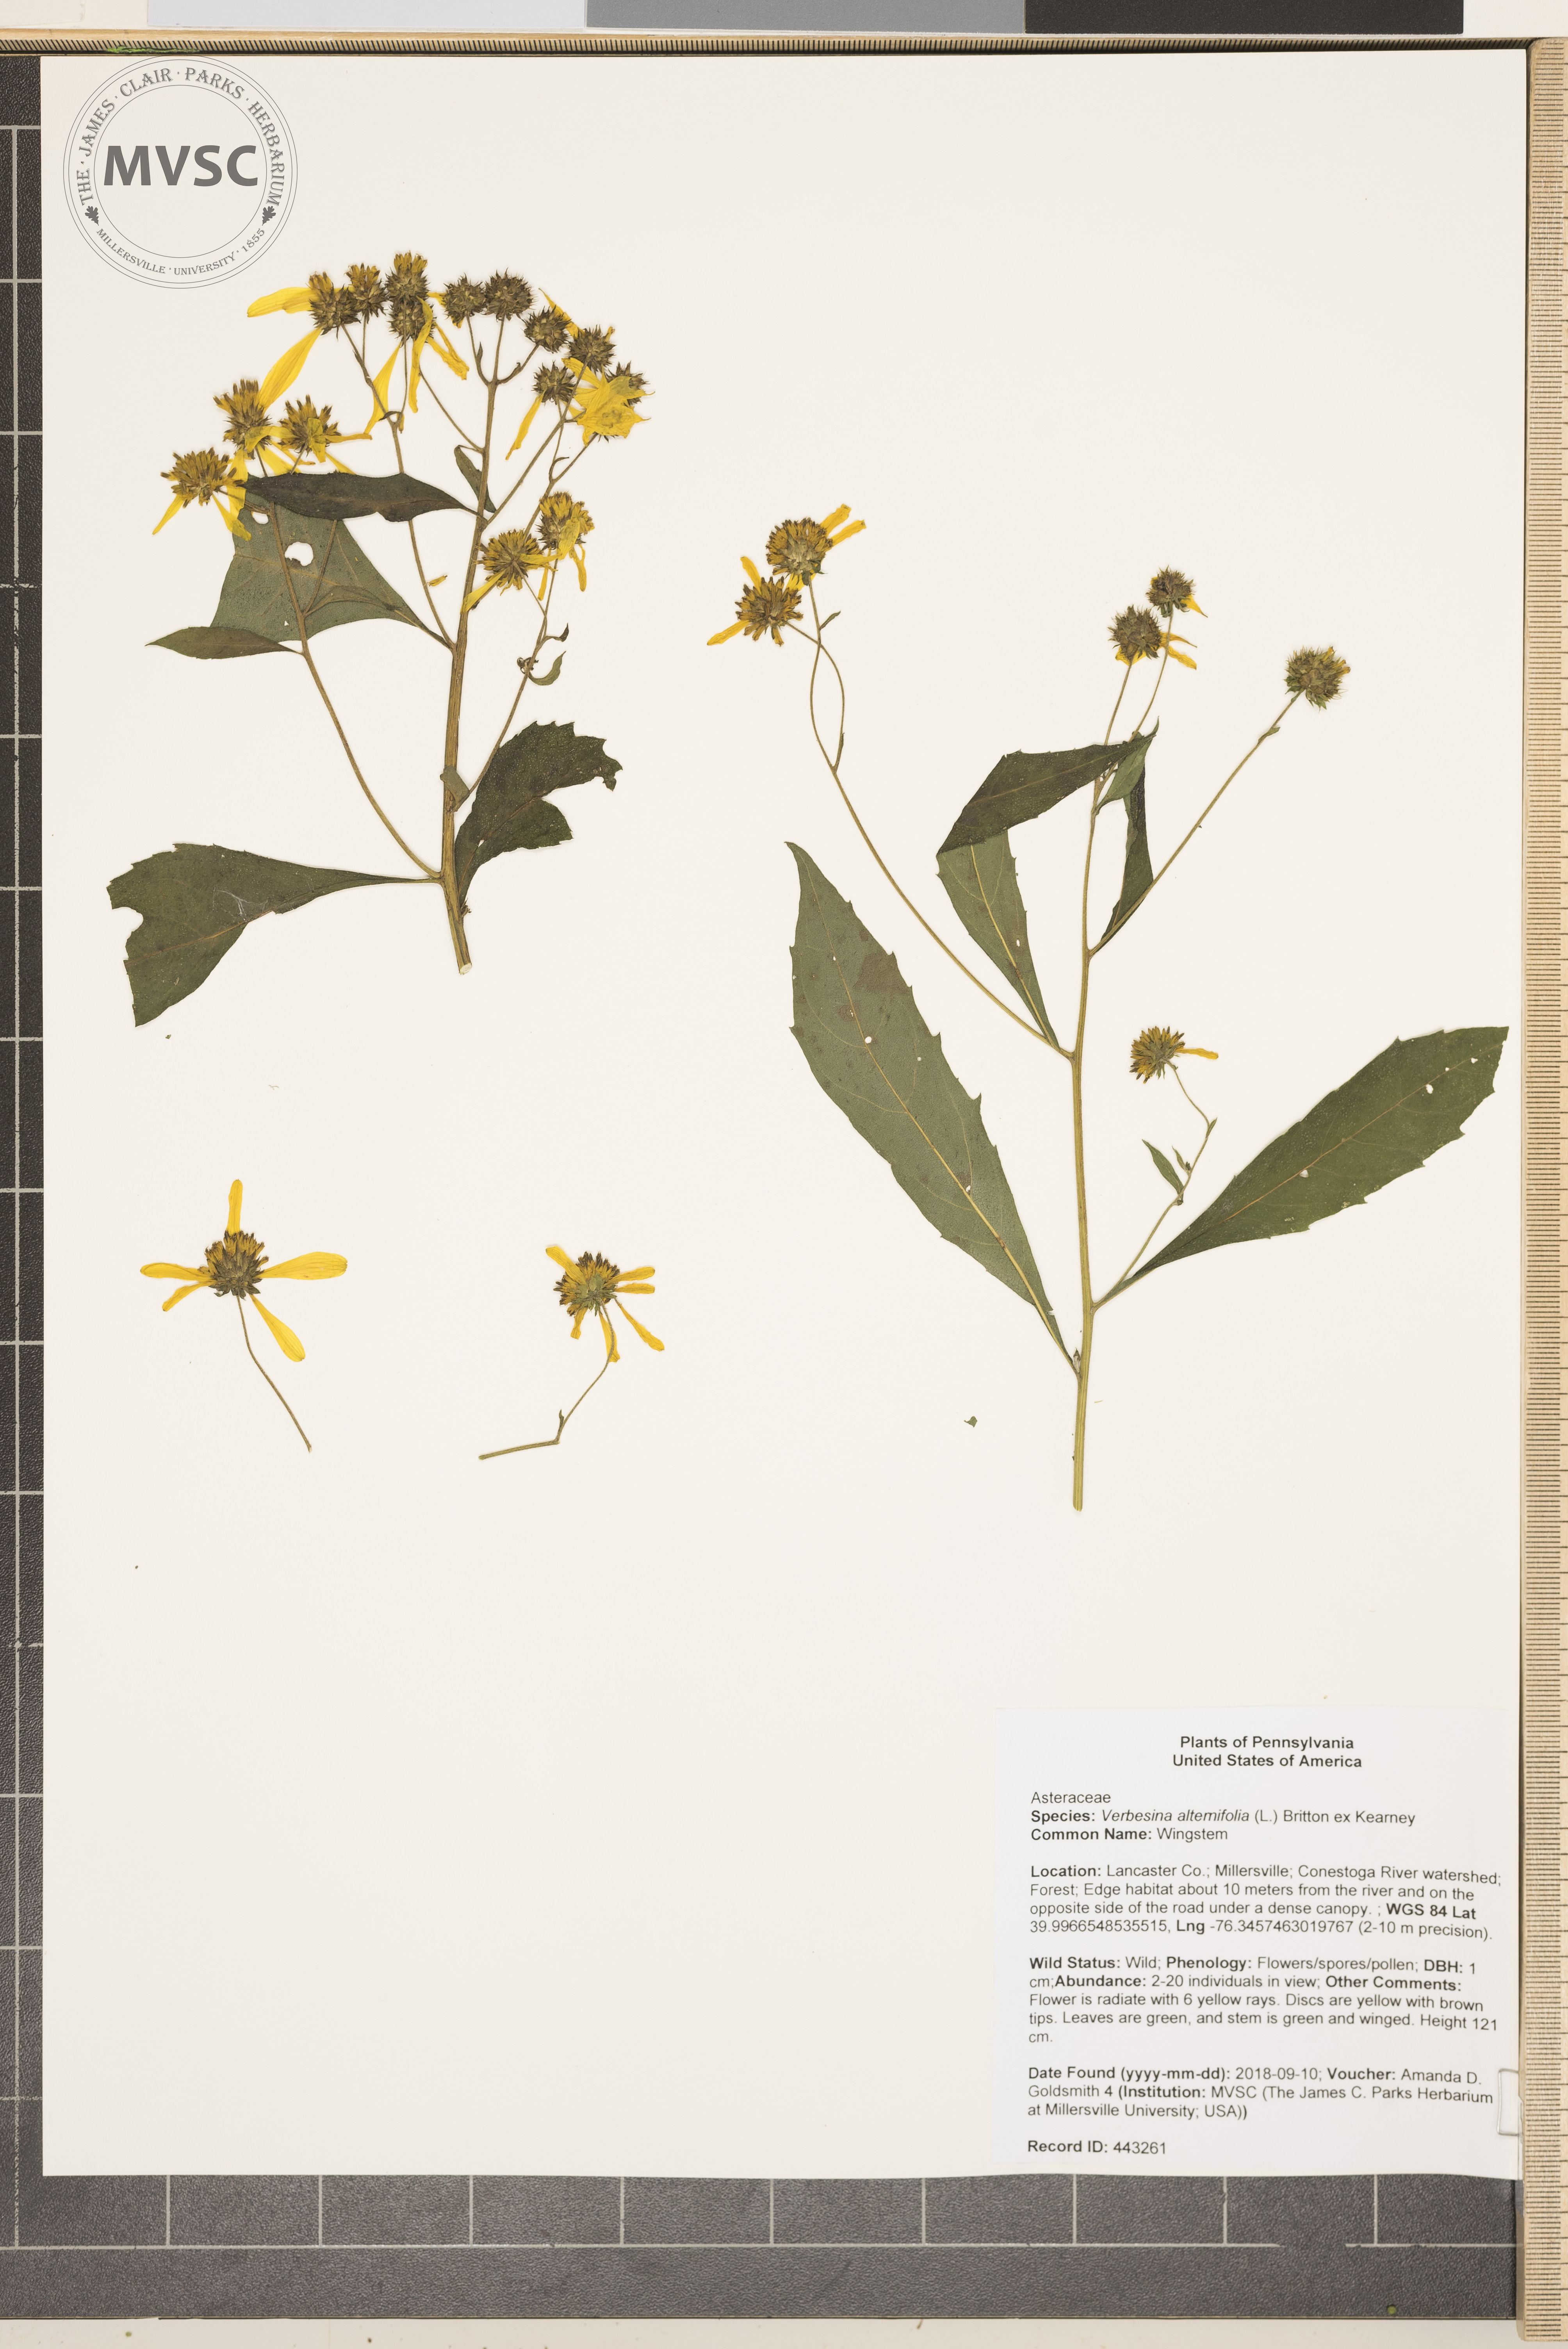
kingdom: Plantae
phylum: Tracheophyta
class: Magnoliopsida
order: Asterales
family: Asteraceae
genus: Verbesina
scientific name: Verbesina alternifolia
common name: Wingstem
